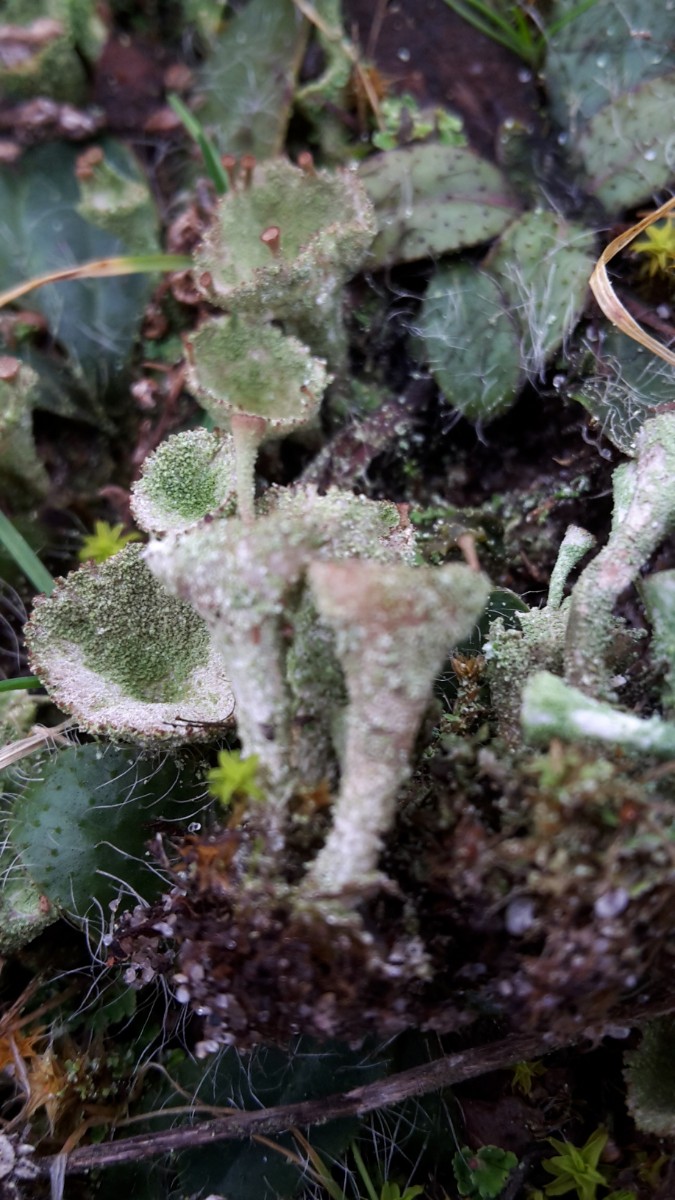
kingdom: Fungi
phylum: Ascomycota
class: Lecanoromycetes
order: Lecanorales
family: Cladoniaceae
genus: Cladonia
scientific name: Cladonia
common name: brungrøn bægerlav
